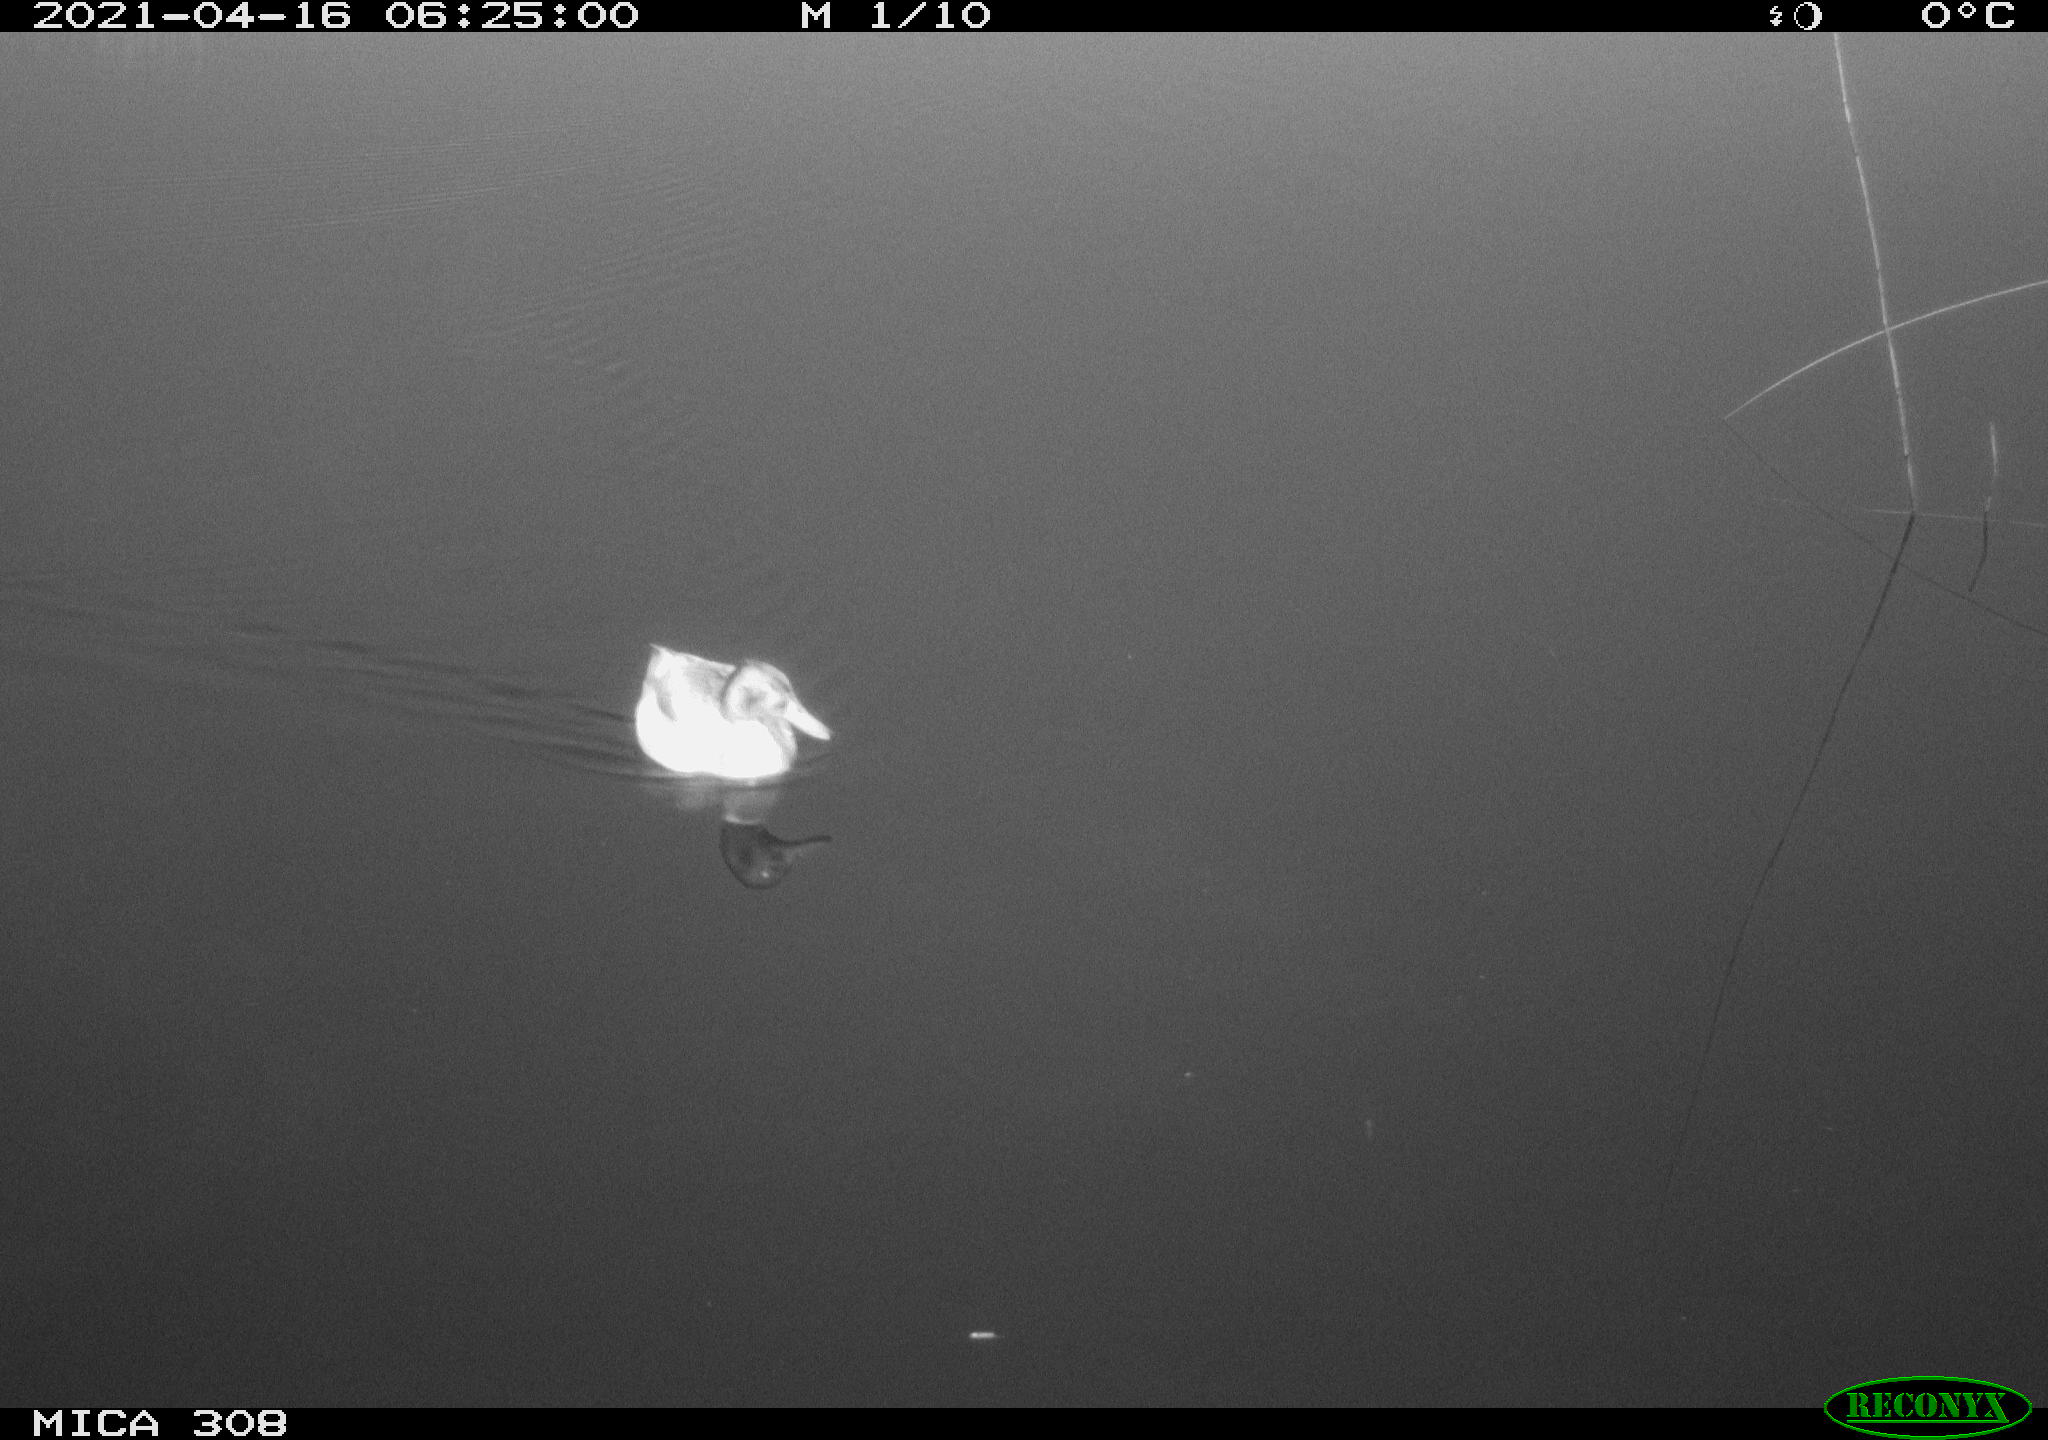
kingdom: Animalia
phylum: Chordata
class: Aves
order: Anseriformes
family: Anatidae
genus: Anas
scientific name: Anas platyrhynchos
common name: Mallard
